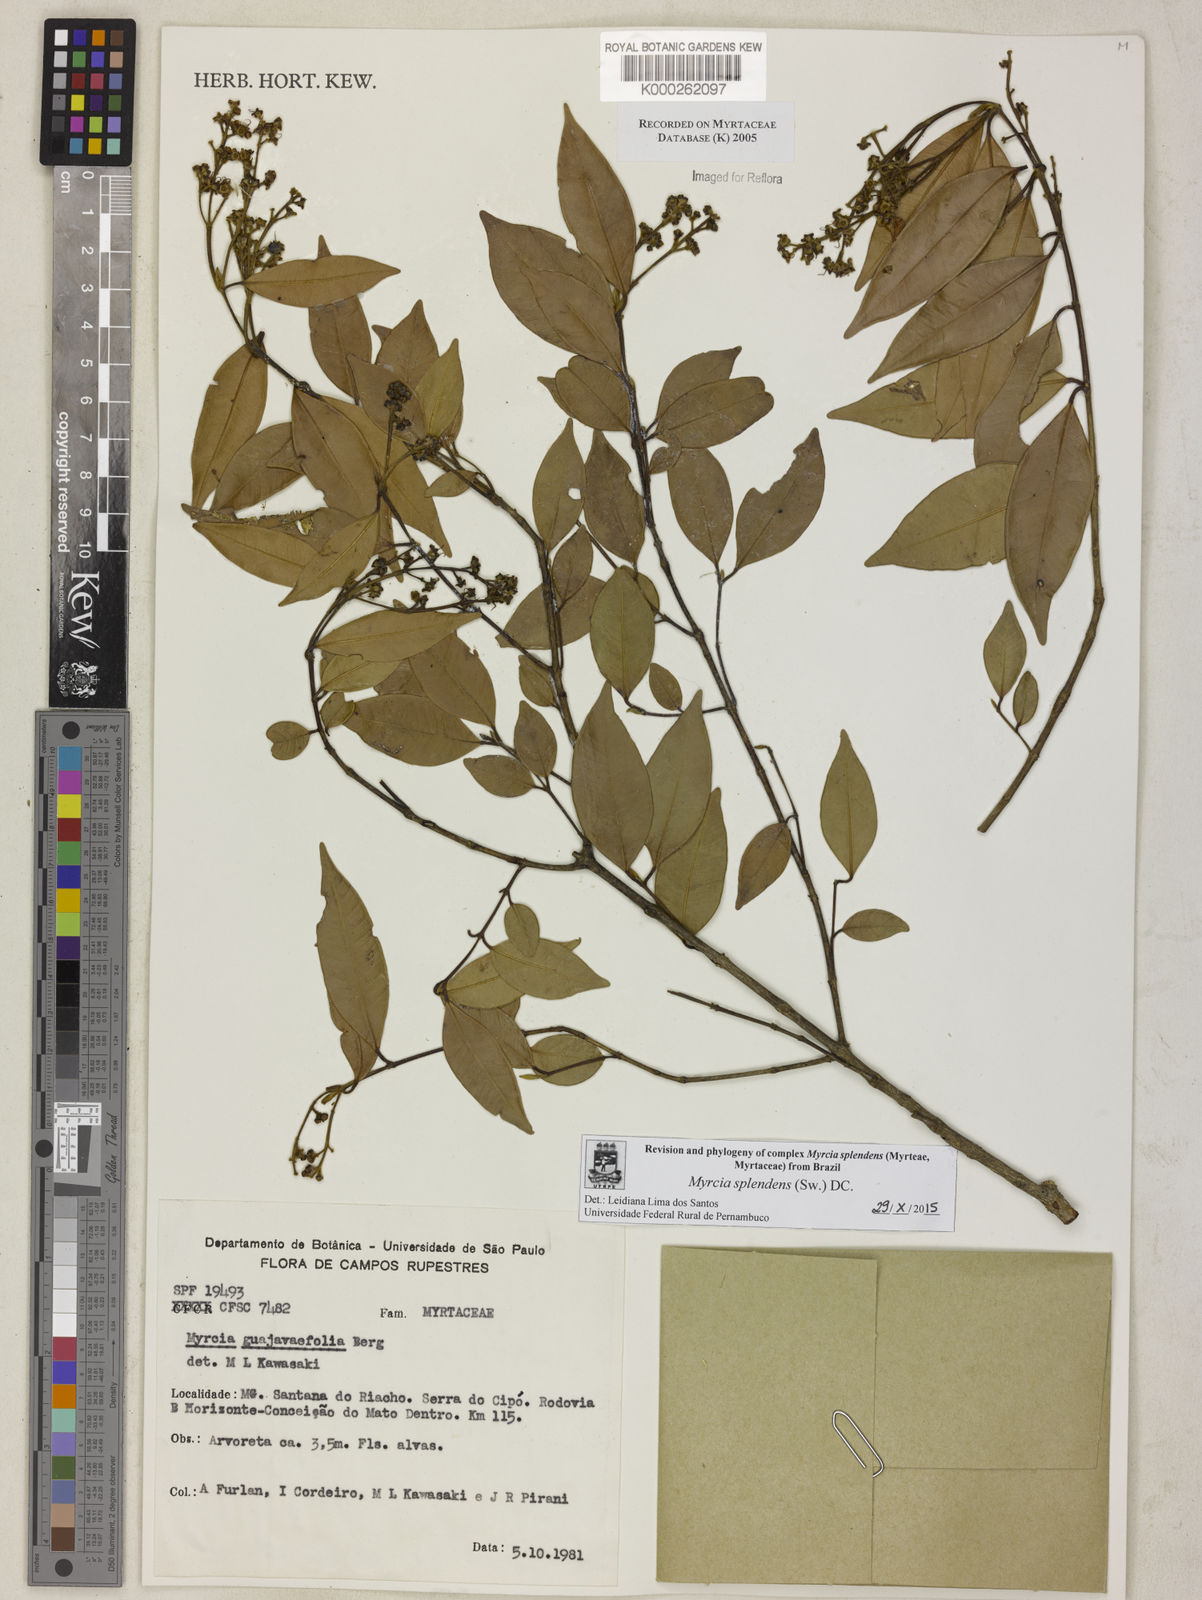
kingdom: Plantae
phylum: Tracheophyta
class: Magnoliopsida
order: Myrtales
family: Myrtaceae
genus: Myrcia
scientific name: Myrcia splendens
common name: Surinam cherry
